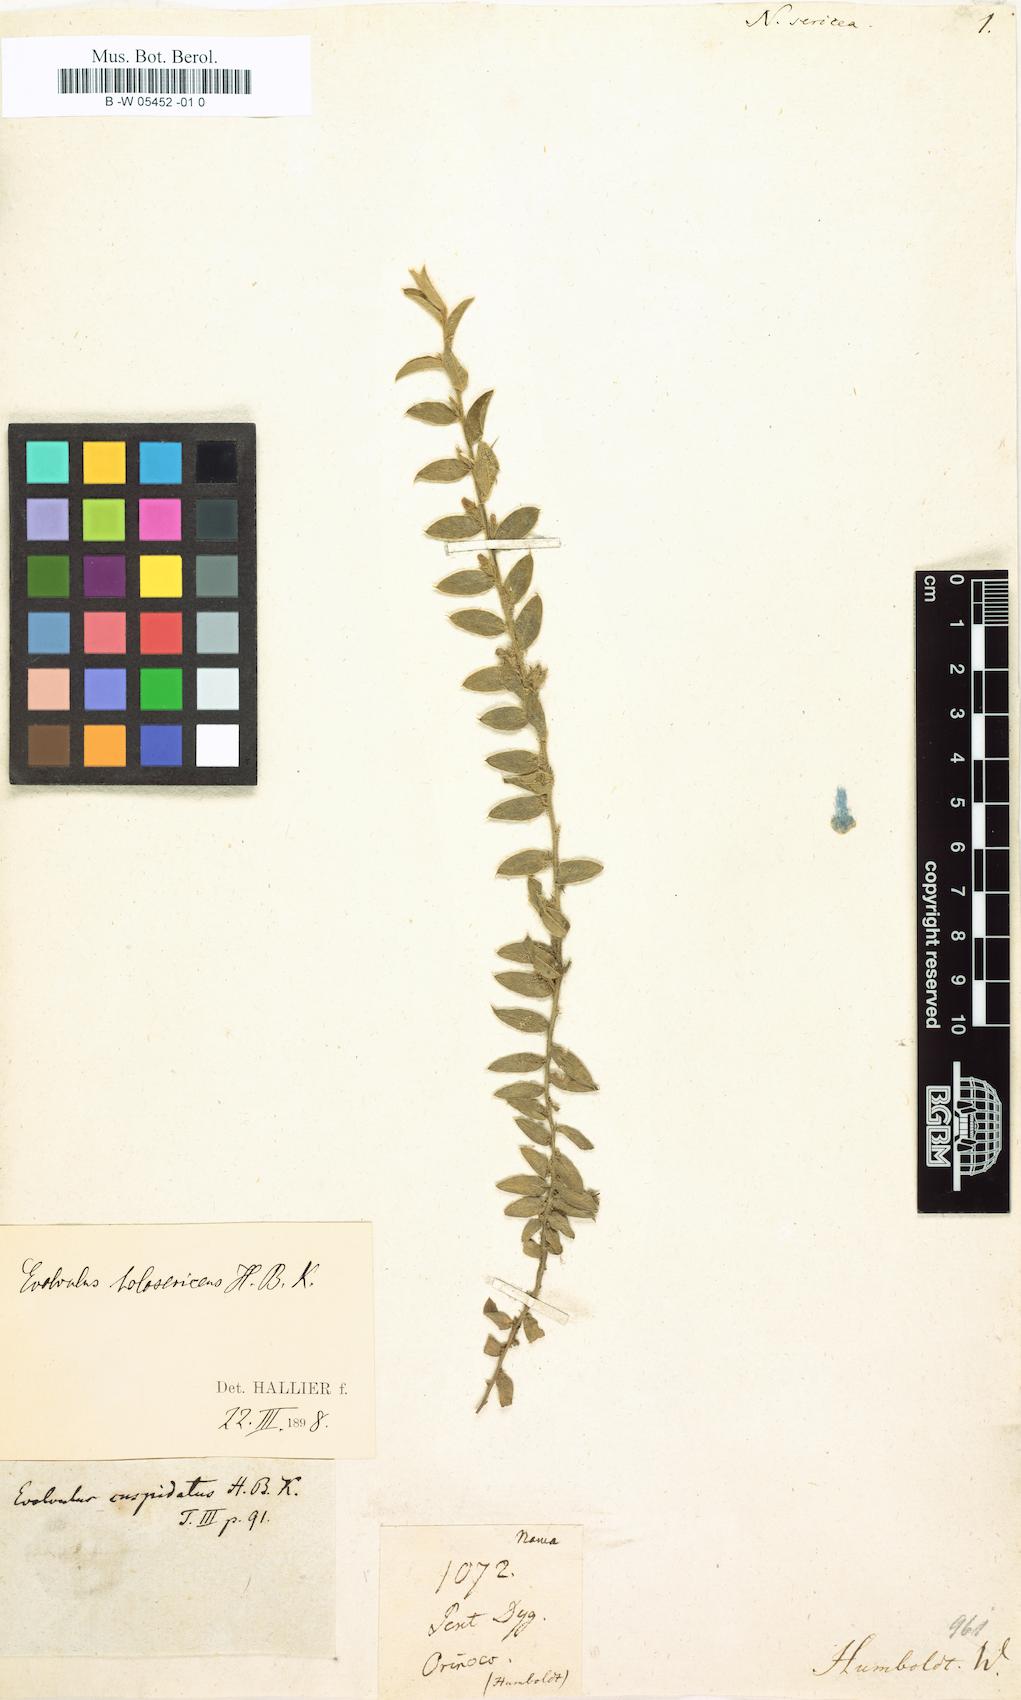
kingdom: Plantae
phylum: Tracheophyta
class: Magnoliopsida
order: Boraginales
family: Namaceae
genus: Nama
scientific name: Nama sericea
